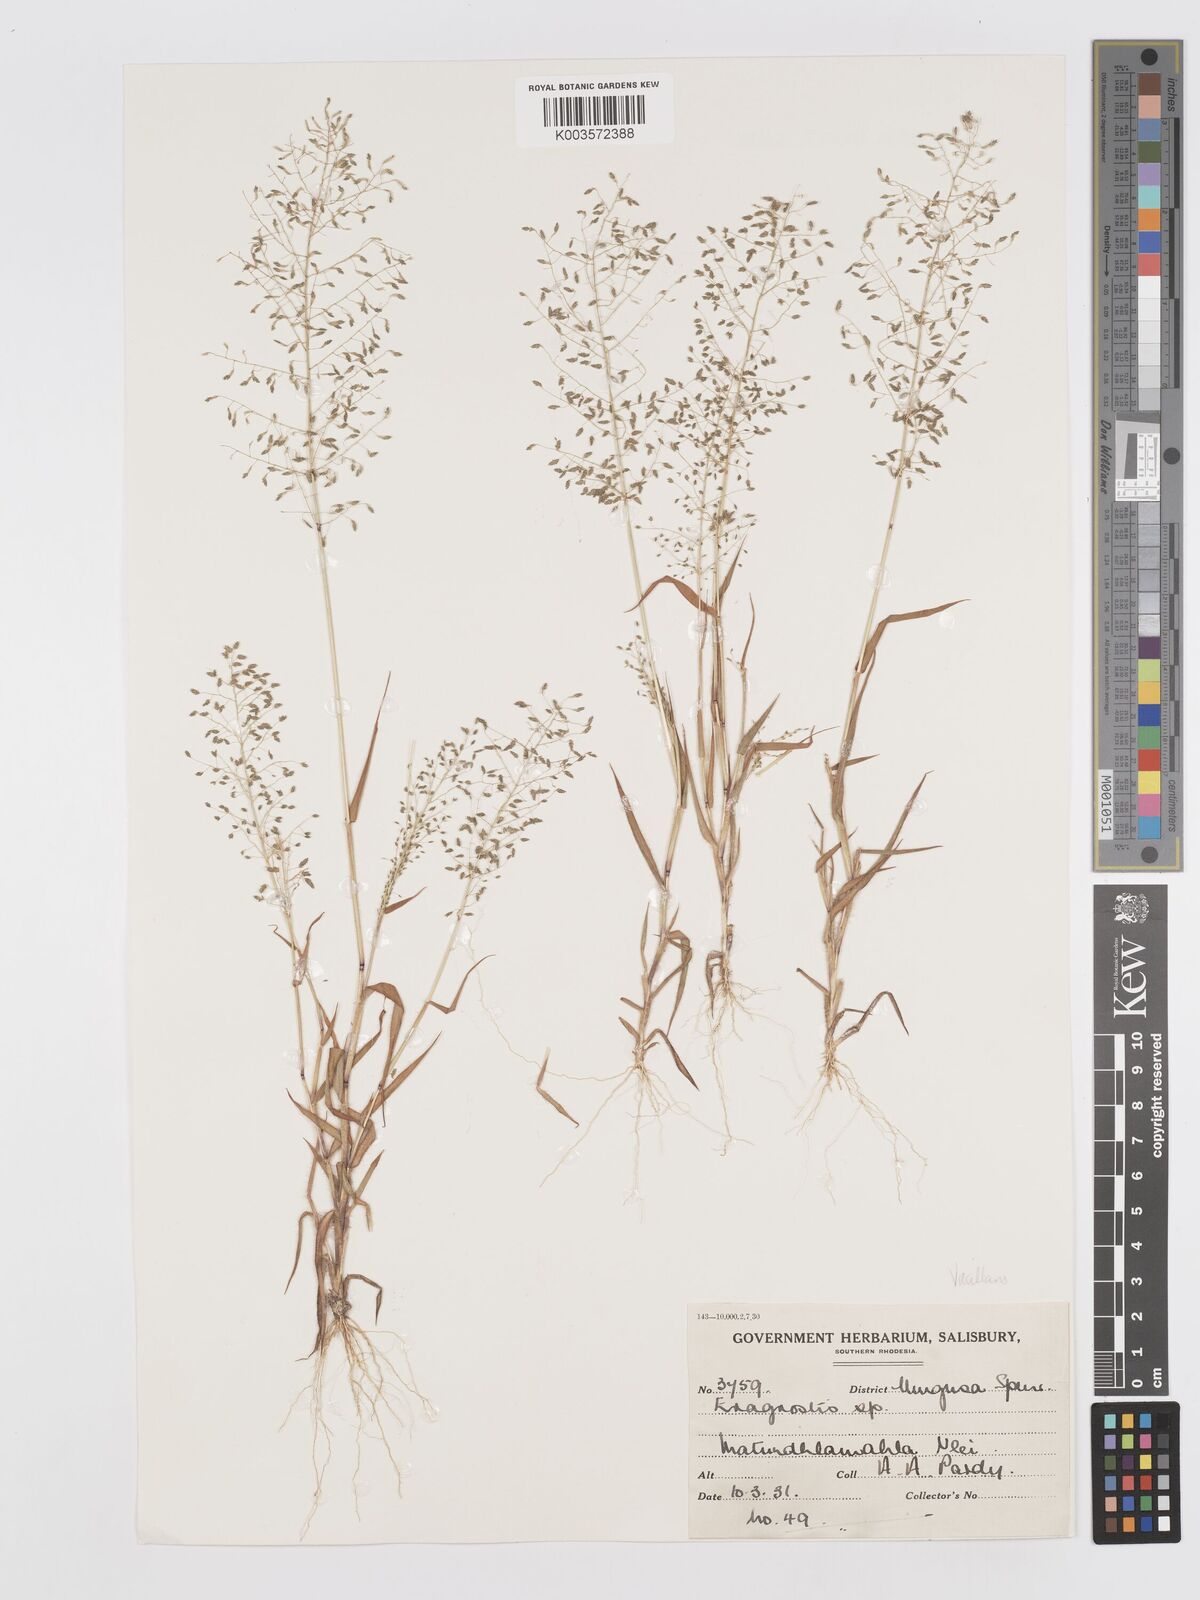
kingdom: Plantae
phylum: Tracheophyta
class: Liliopsida
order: Poales
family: Poaceae
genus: Eragrostis
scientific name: Eragrostis venustula
